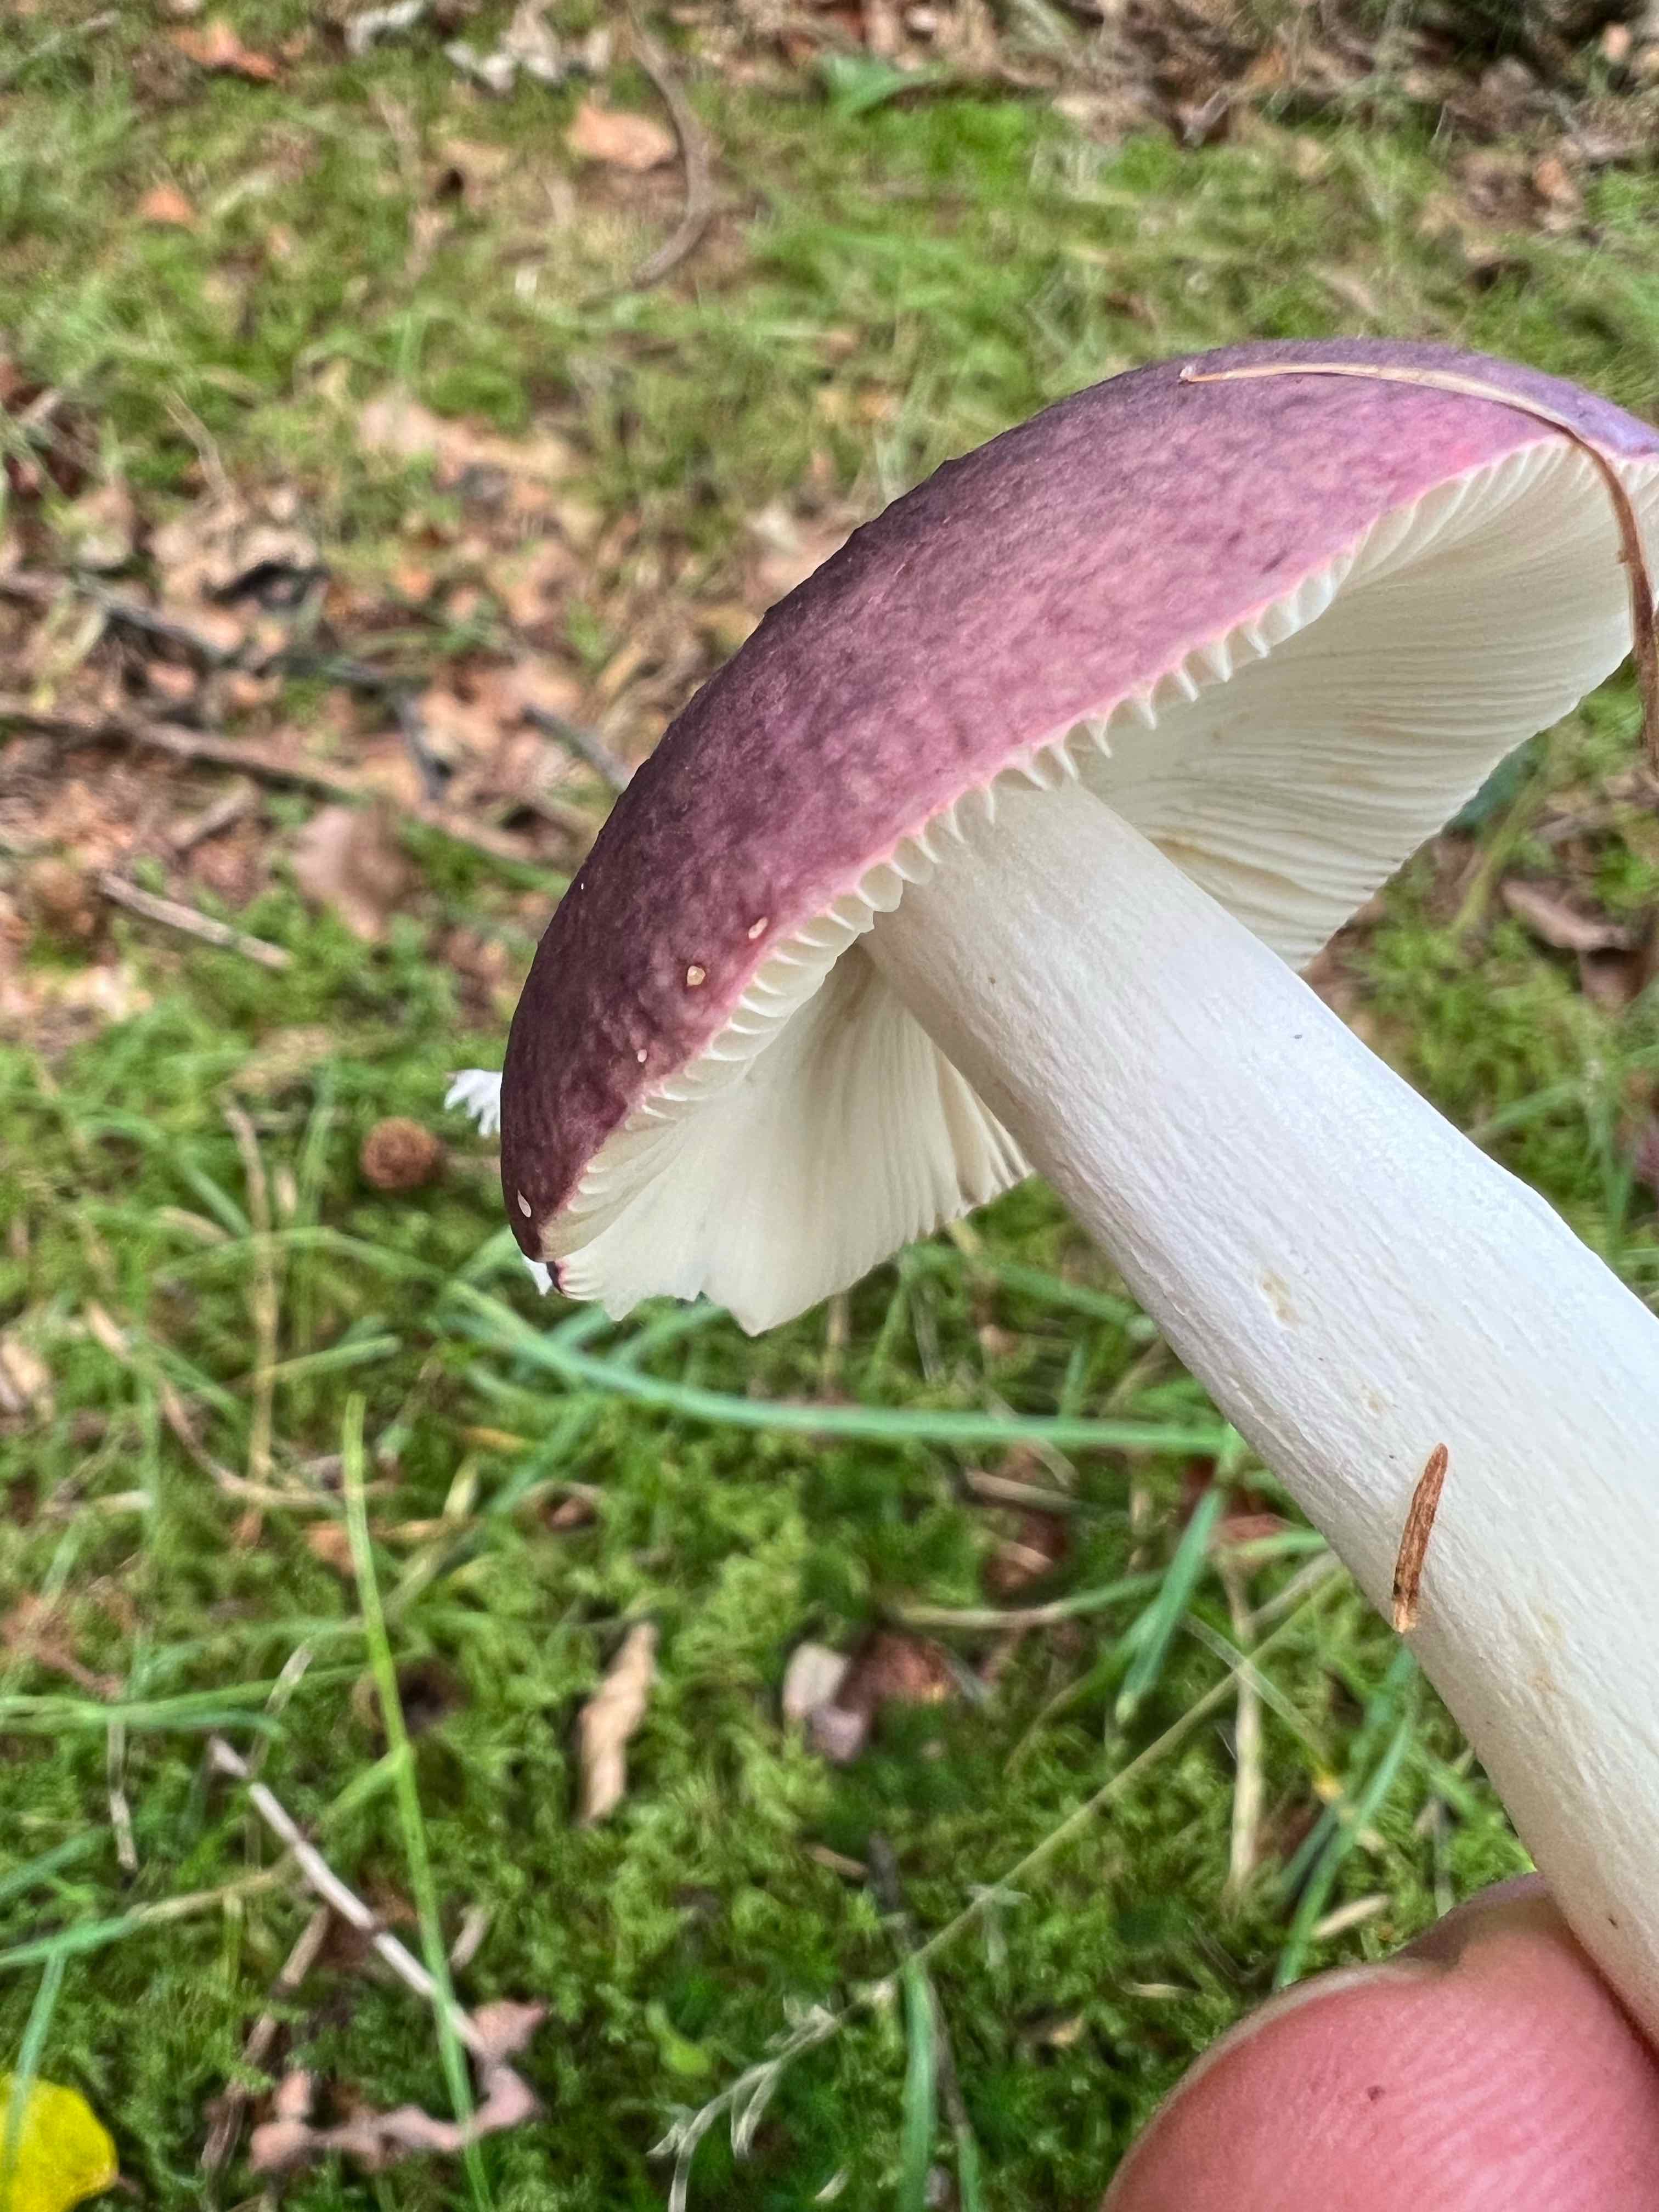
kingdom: Fungi
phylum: Basidiomycota
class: Agaricomycetes
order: Russulales
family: Russulaceae
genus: Russula
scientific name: Russula
